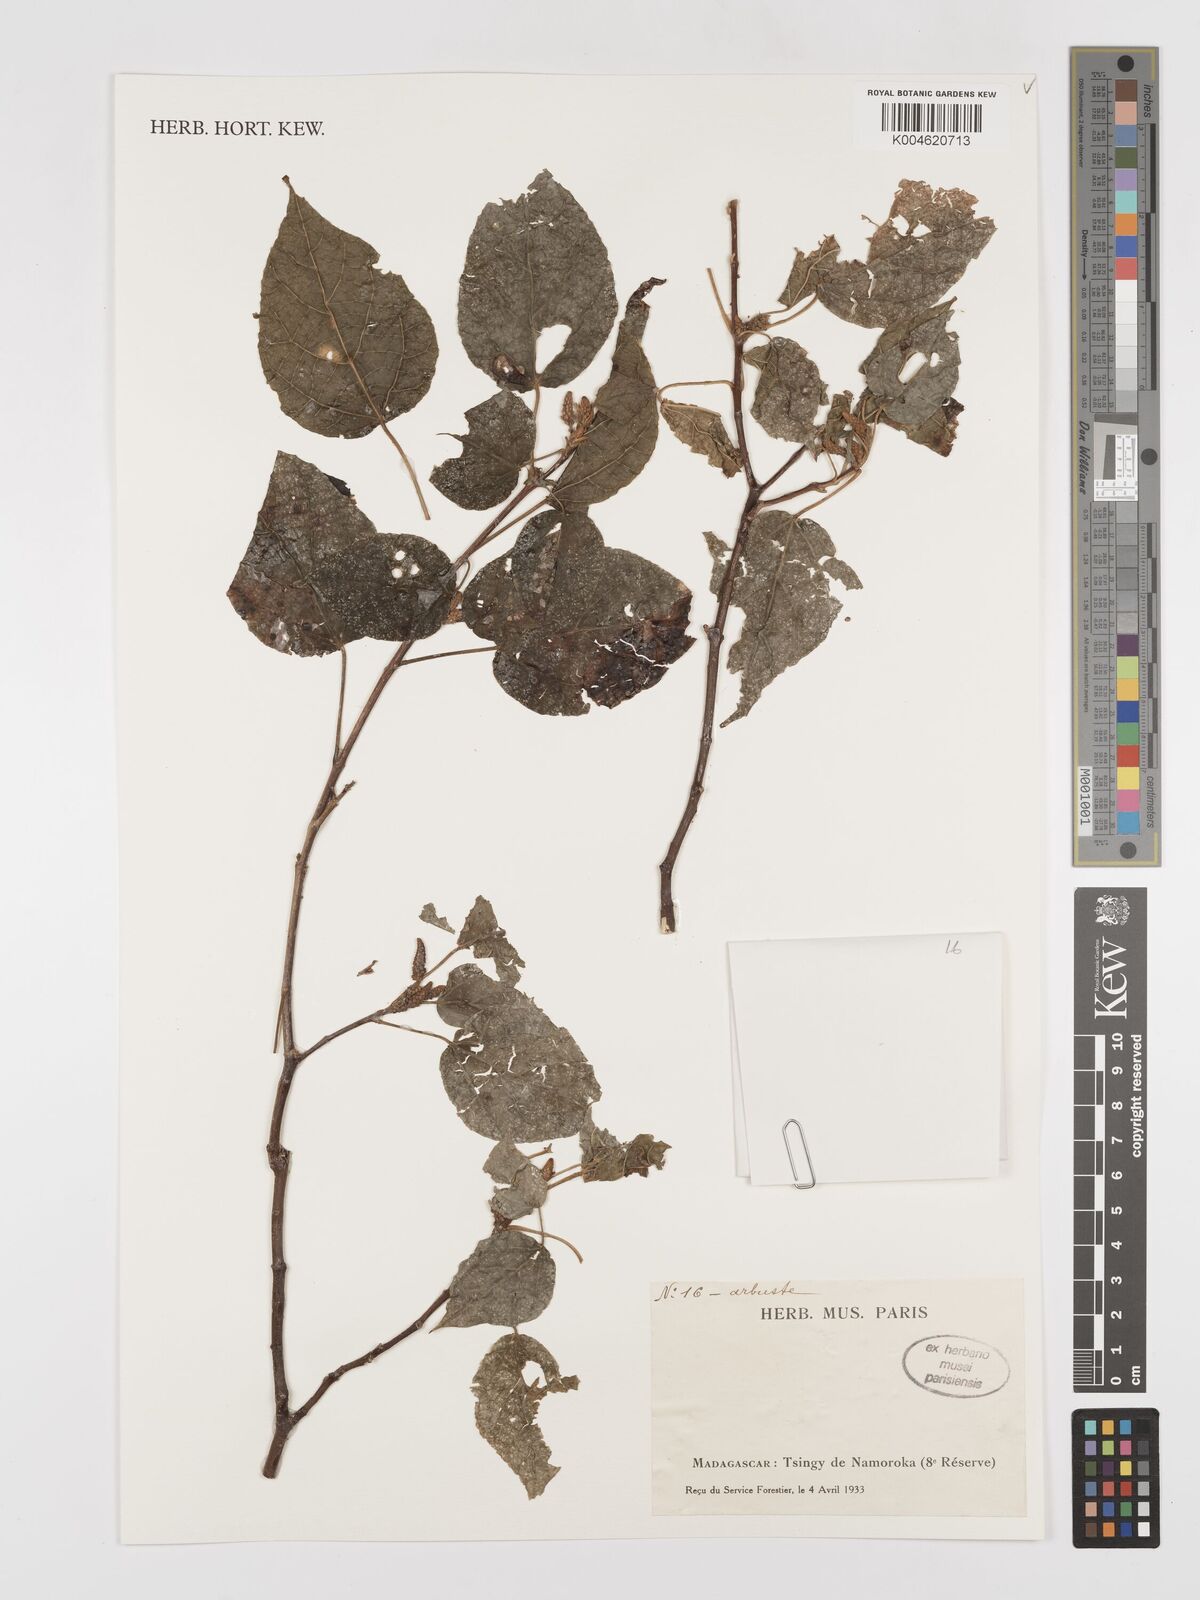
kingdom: Plantae
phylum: Tracheophyta
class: Magnoliopsida
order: Malpighiales
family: Euphorbiaceae
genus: Croton
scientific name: Croton
